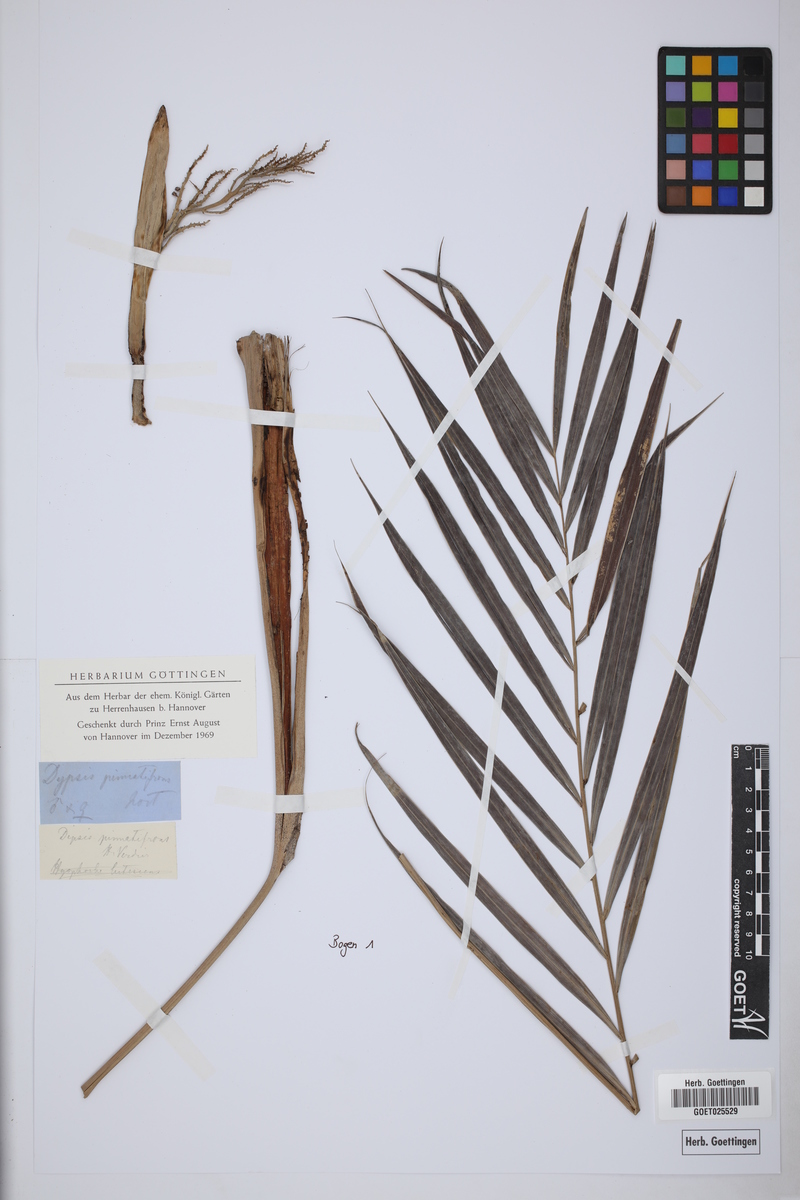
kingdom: Plantae
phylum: Tracheophyta
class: Liliopsida
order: Arecales
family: Arecaceae
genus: Dypsis
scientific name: Dypsis pinnatifrons
